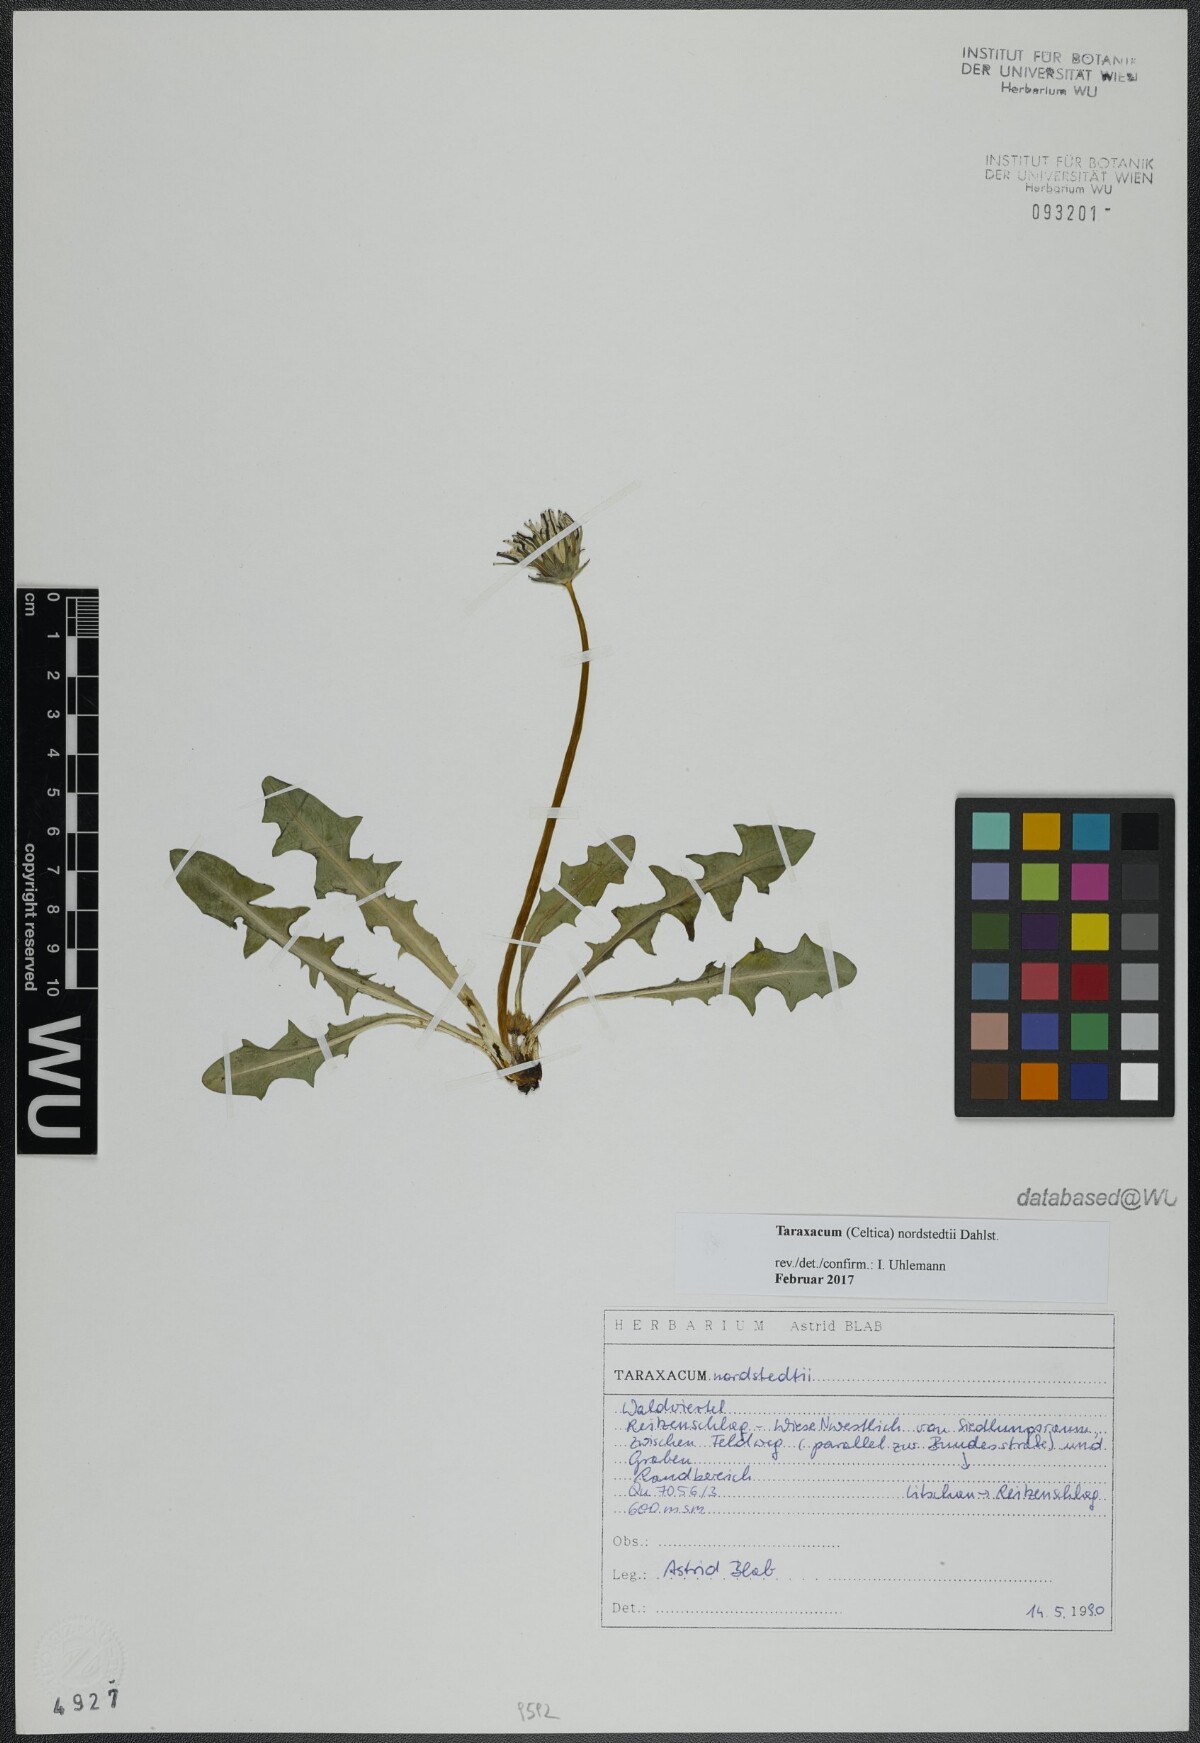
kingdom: Plantae
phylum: Tracheophyta
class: Magnoliopsida
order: Asterales
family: Asteraceae
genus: Taraxacum
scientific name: Taraxacum nordstedtii
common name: Nordstedt's dandelion
